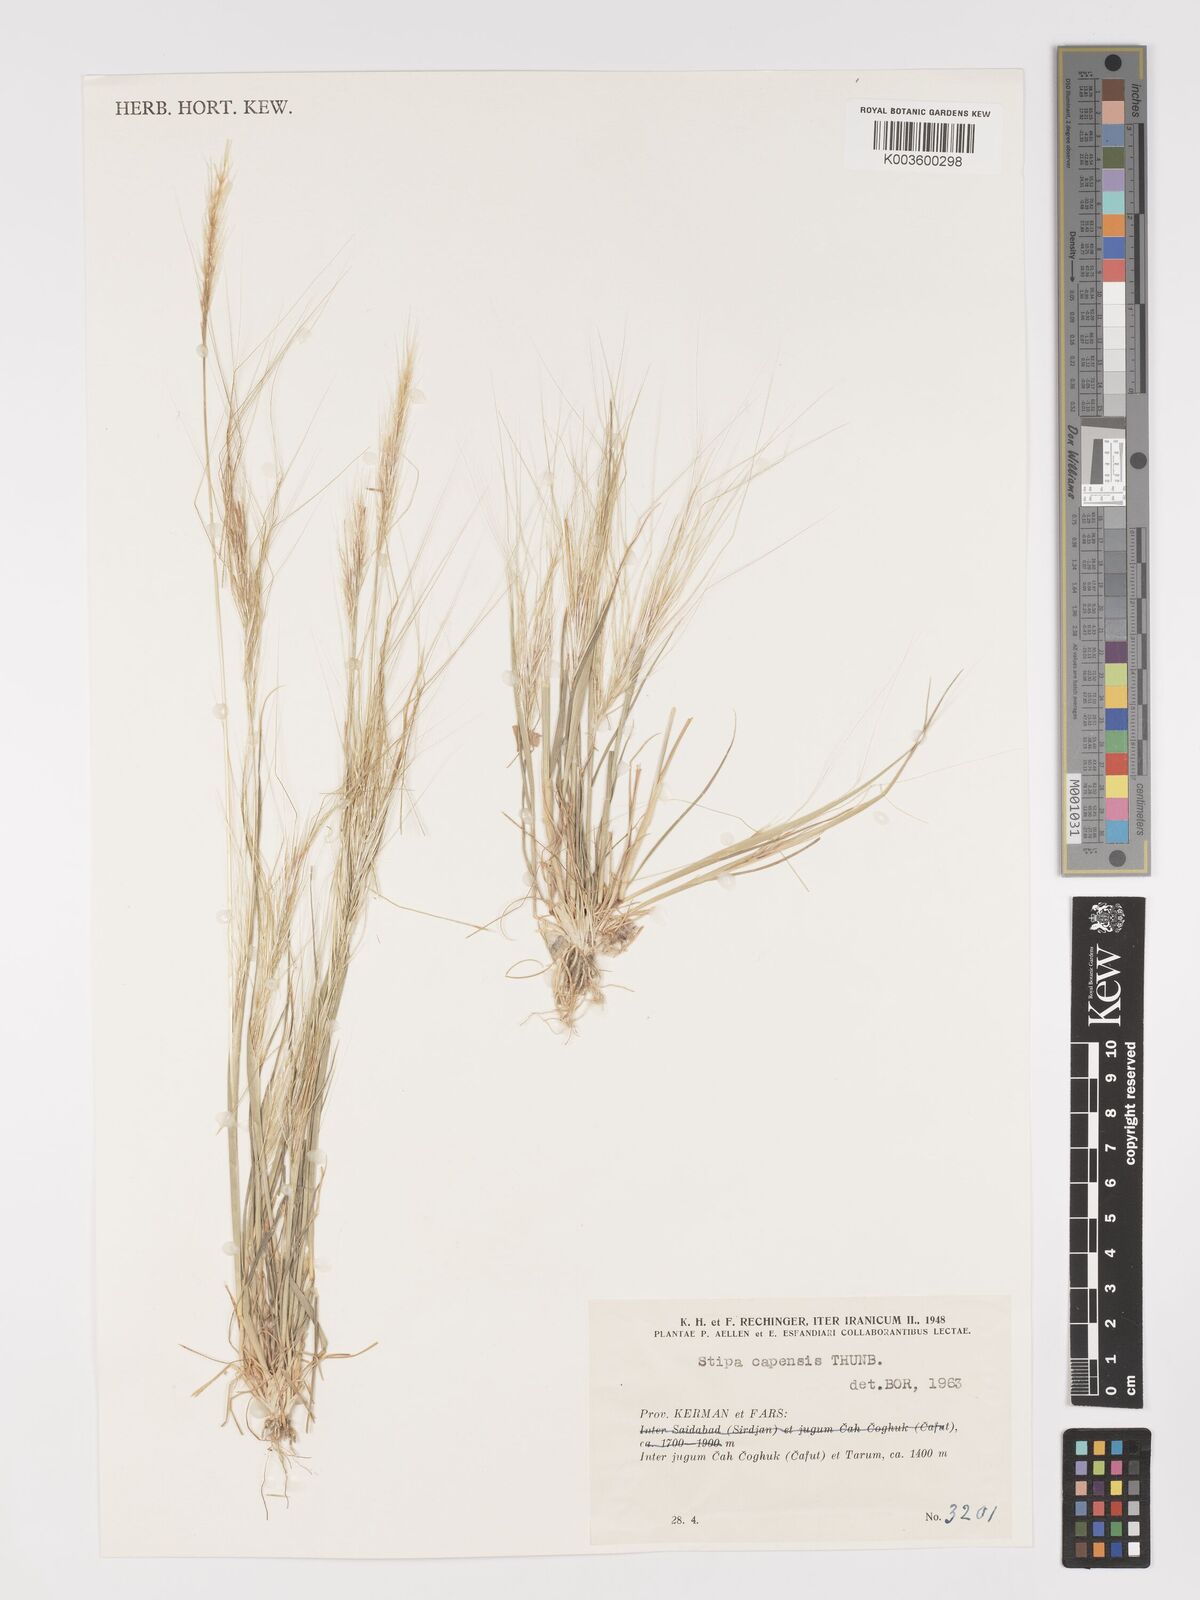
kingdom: Plantae
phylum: Tracheophyta
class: Liliopsida
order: Poales
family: Poaceae
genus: Stipellula
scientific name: Stipellula capensis
